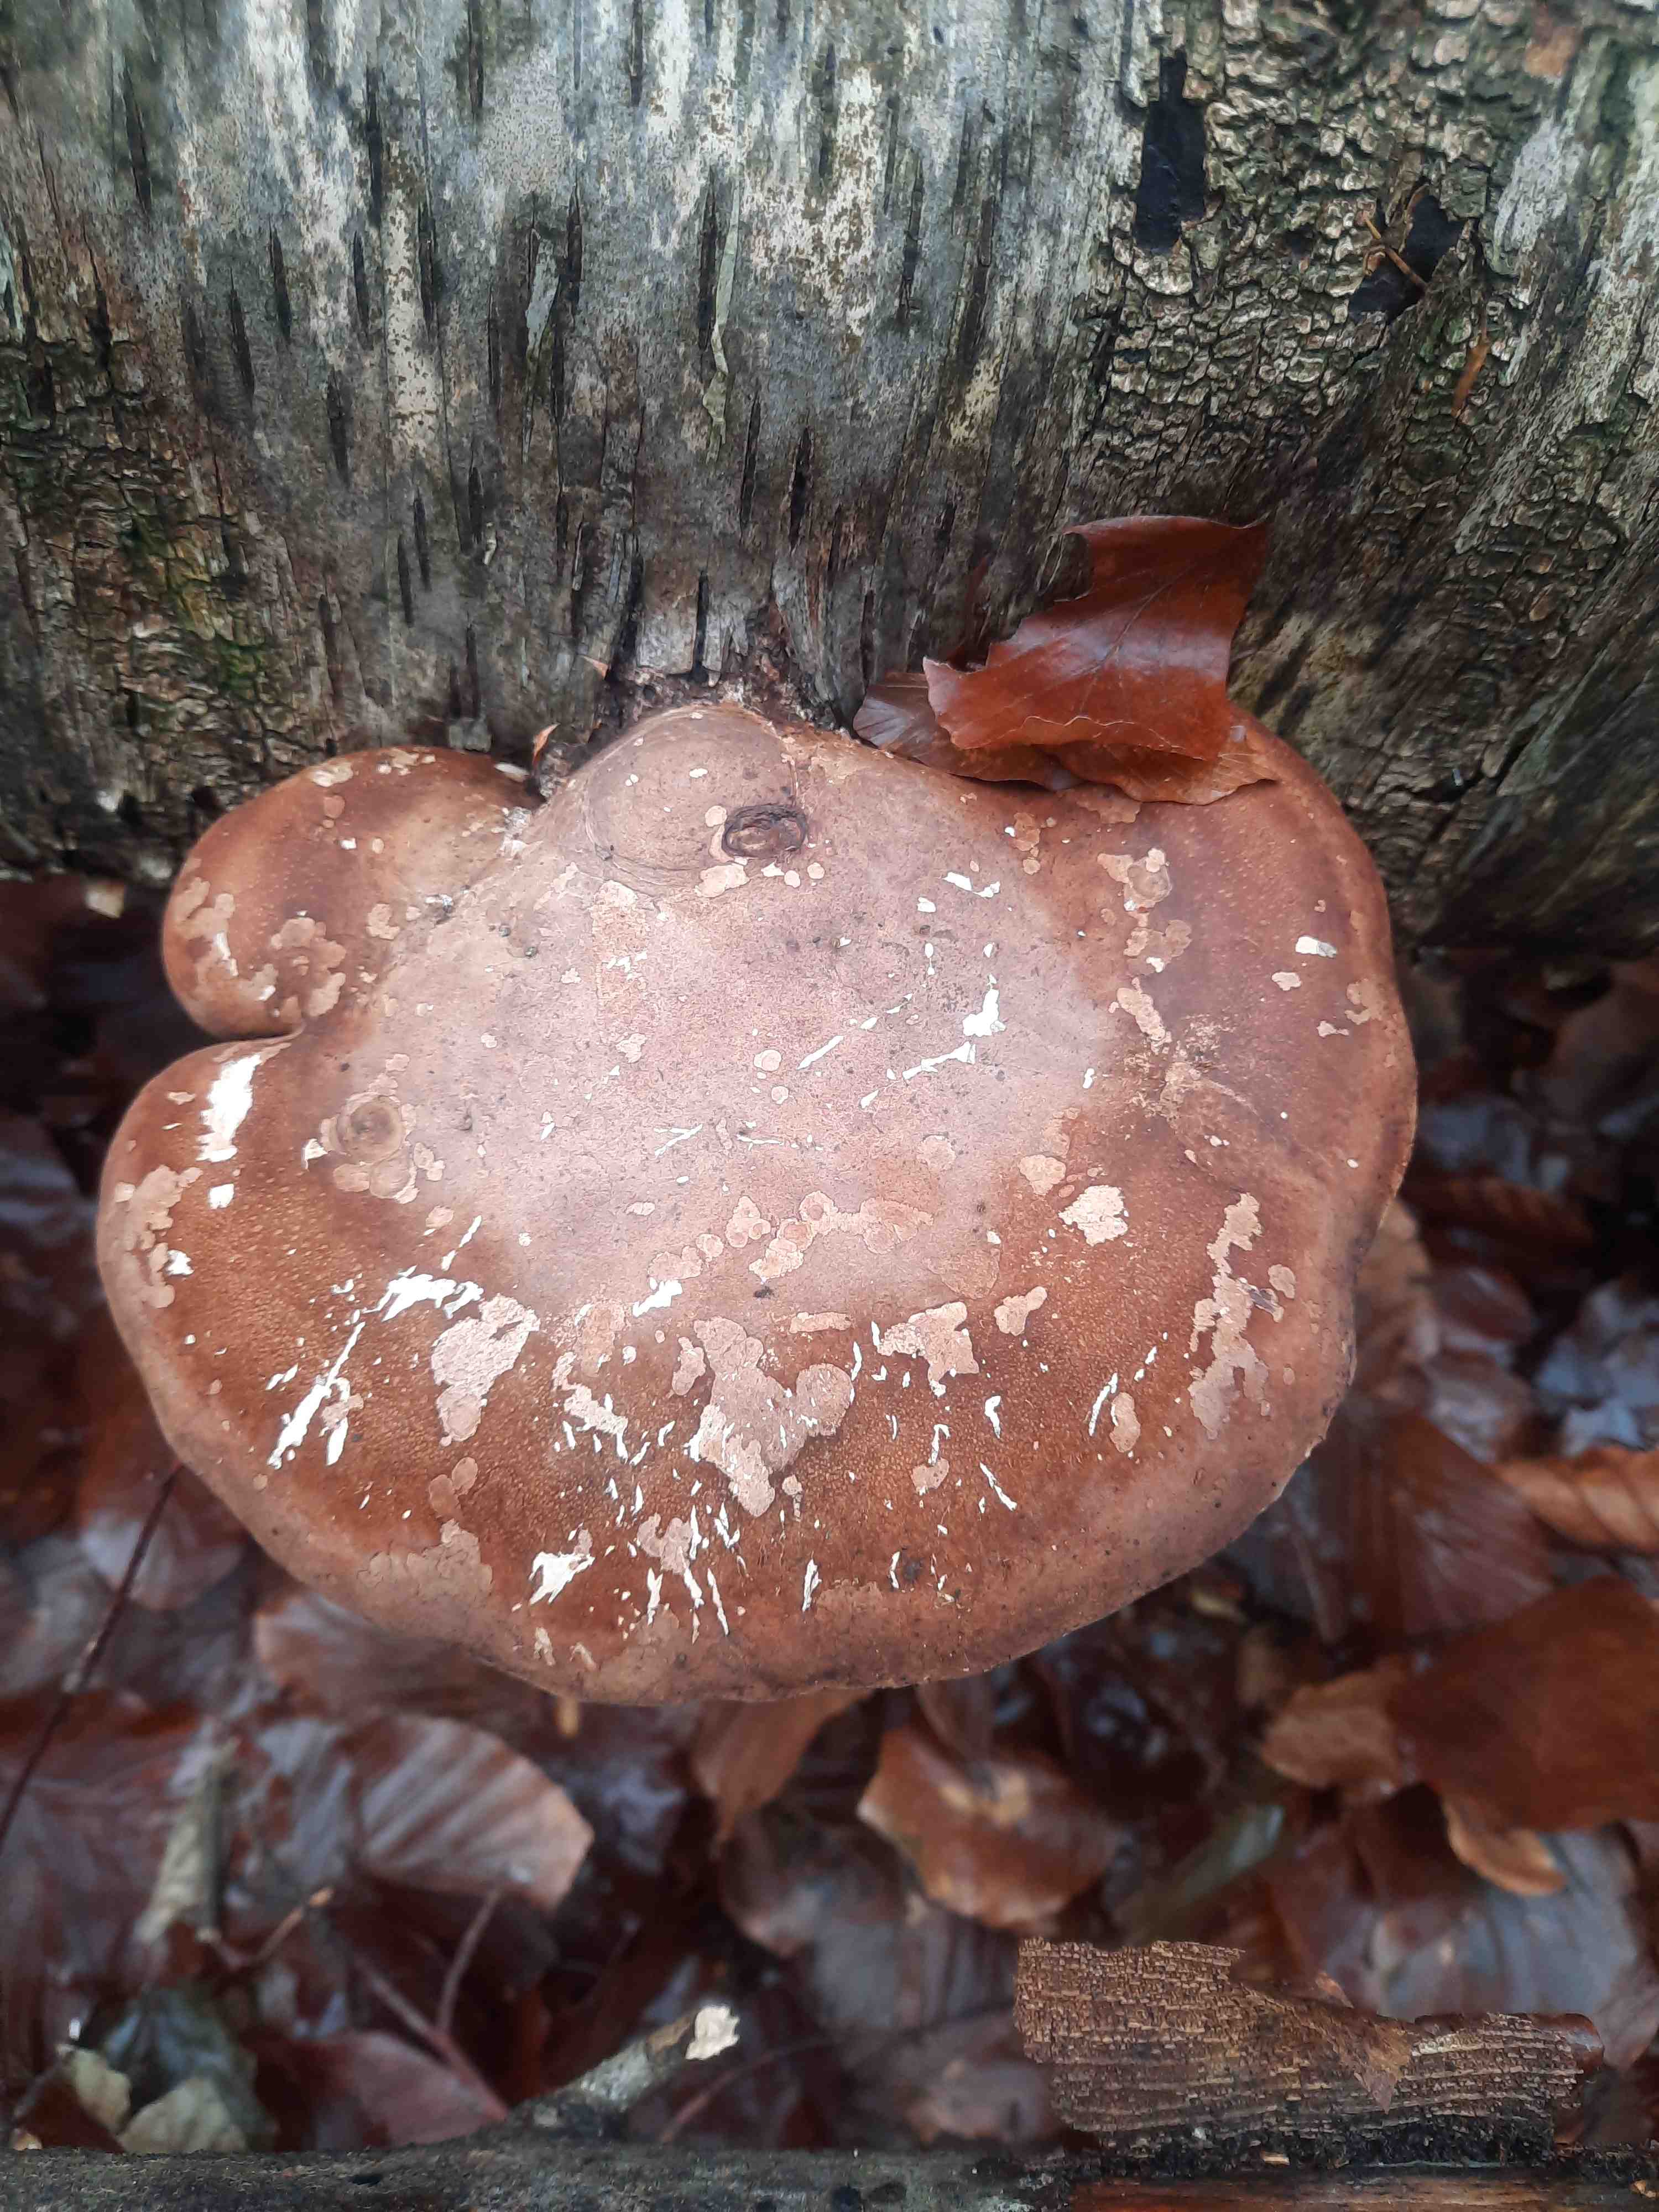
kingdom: Fungi
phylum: Basidiomycota
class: Agaricomycetes
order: Polyporales
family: Fomitopsidaceae
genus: Fomitopsis
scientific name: Fomitopsis betulina
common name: birkeporesvamp
